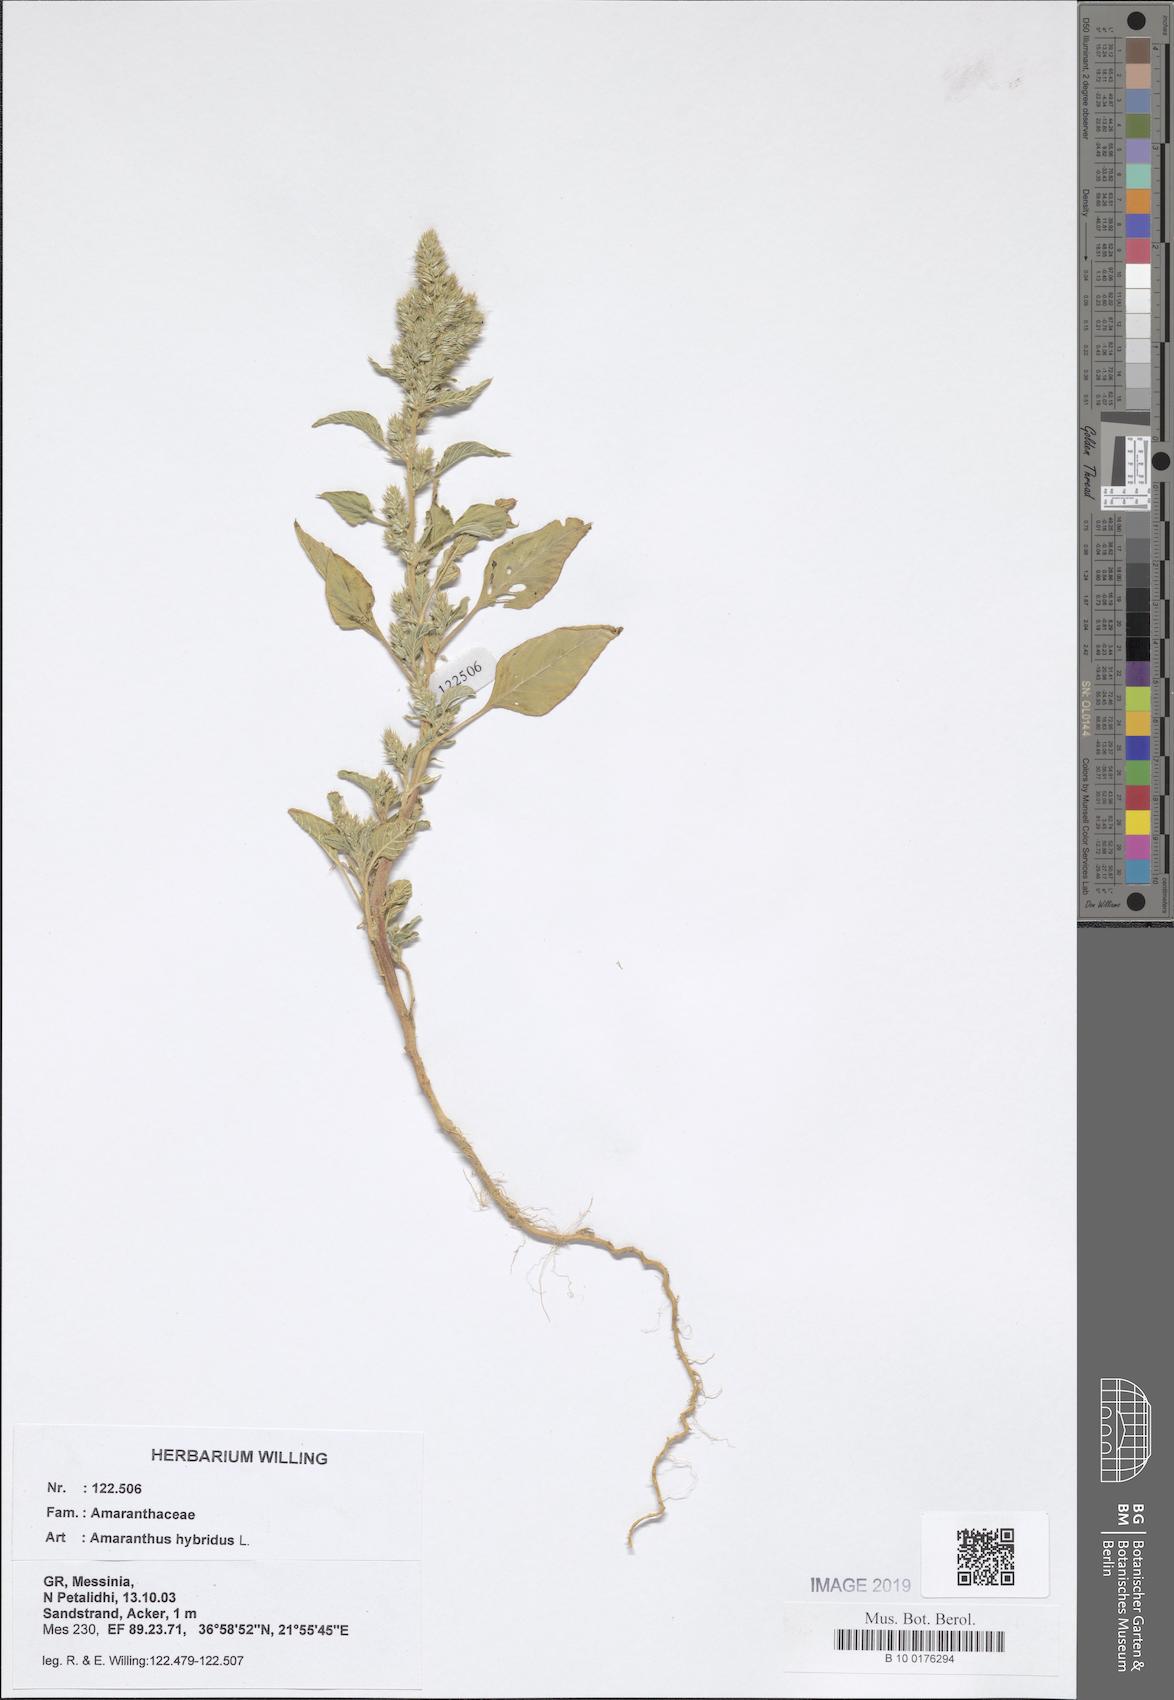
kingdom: Plantae
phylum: Tracheophyta
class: Magnoliopsida
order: Caryophyllales
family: Amaranthaceae
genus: Amaranthus
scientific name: Amaranthus hybridus
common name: Green amaranth
